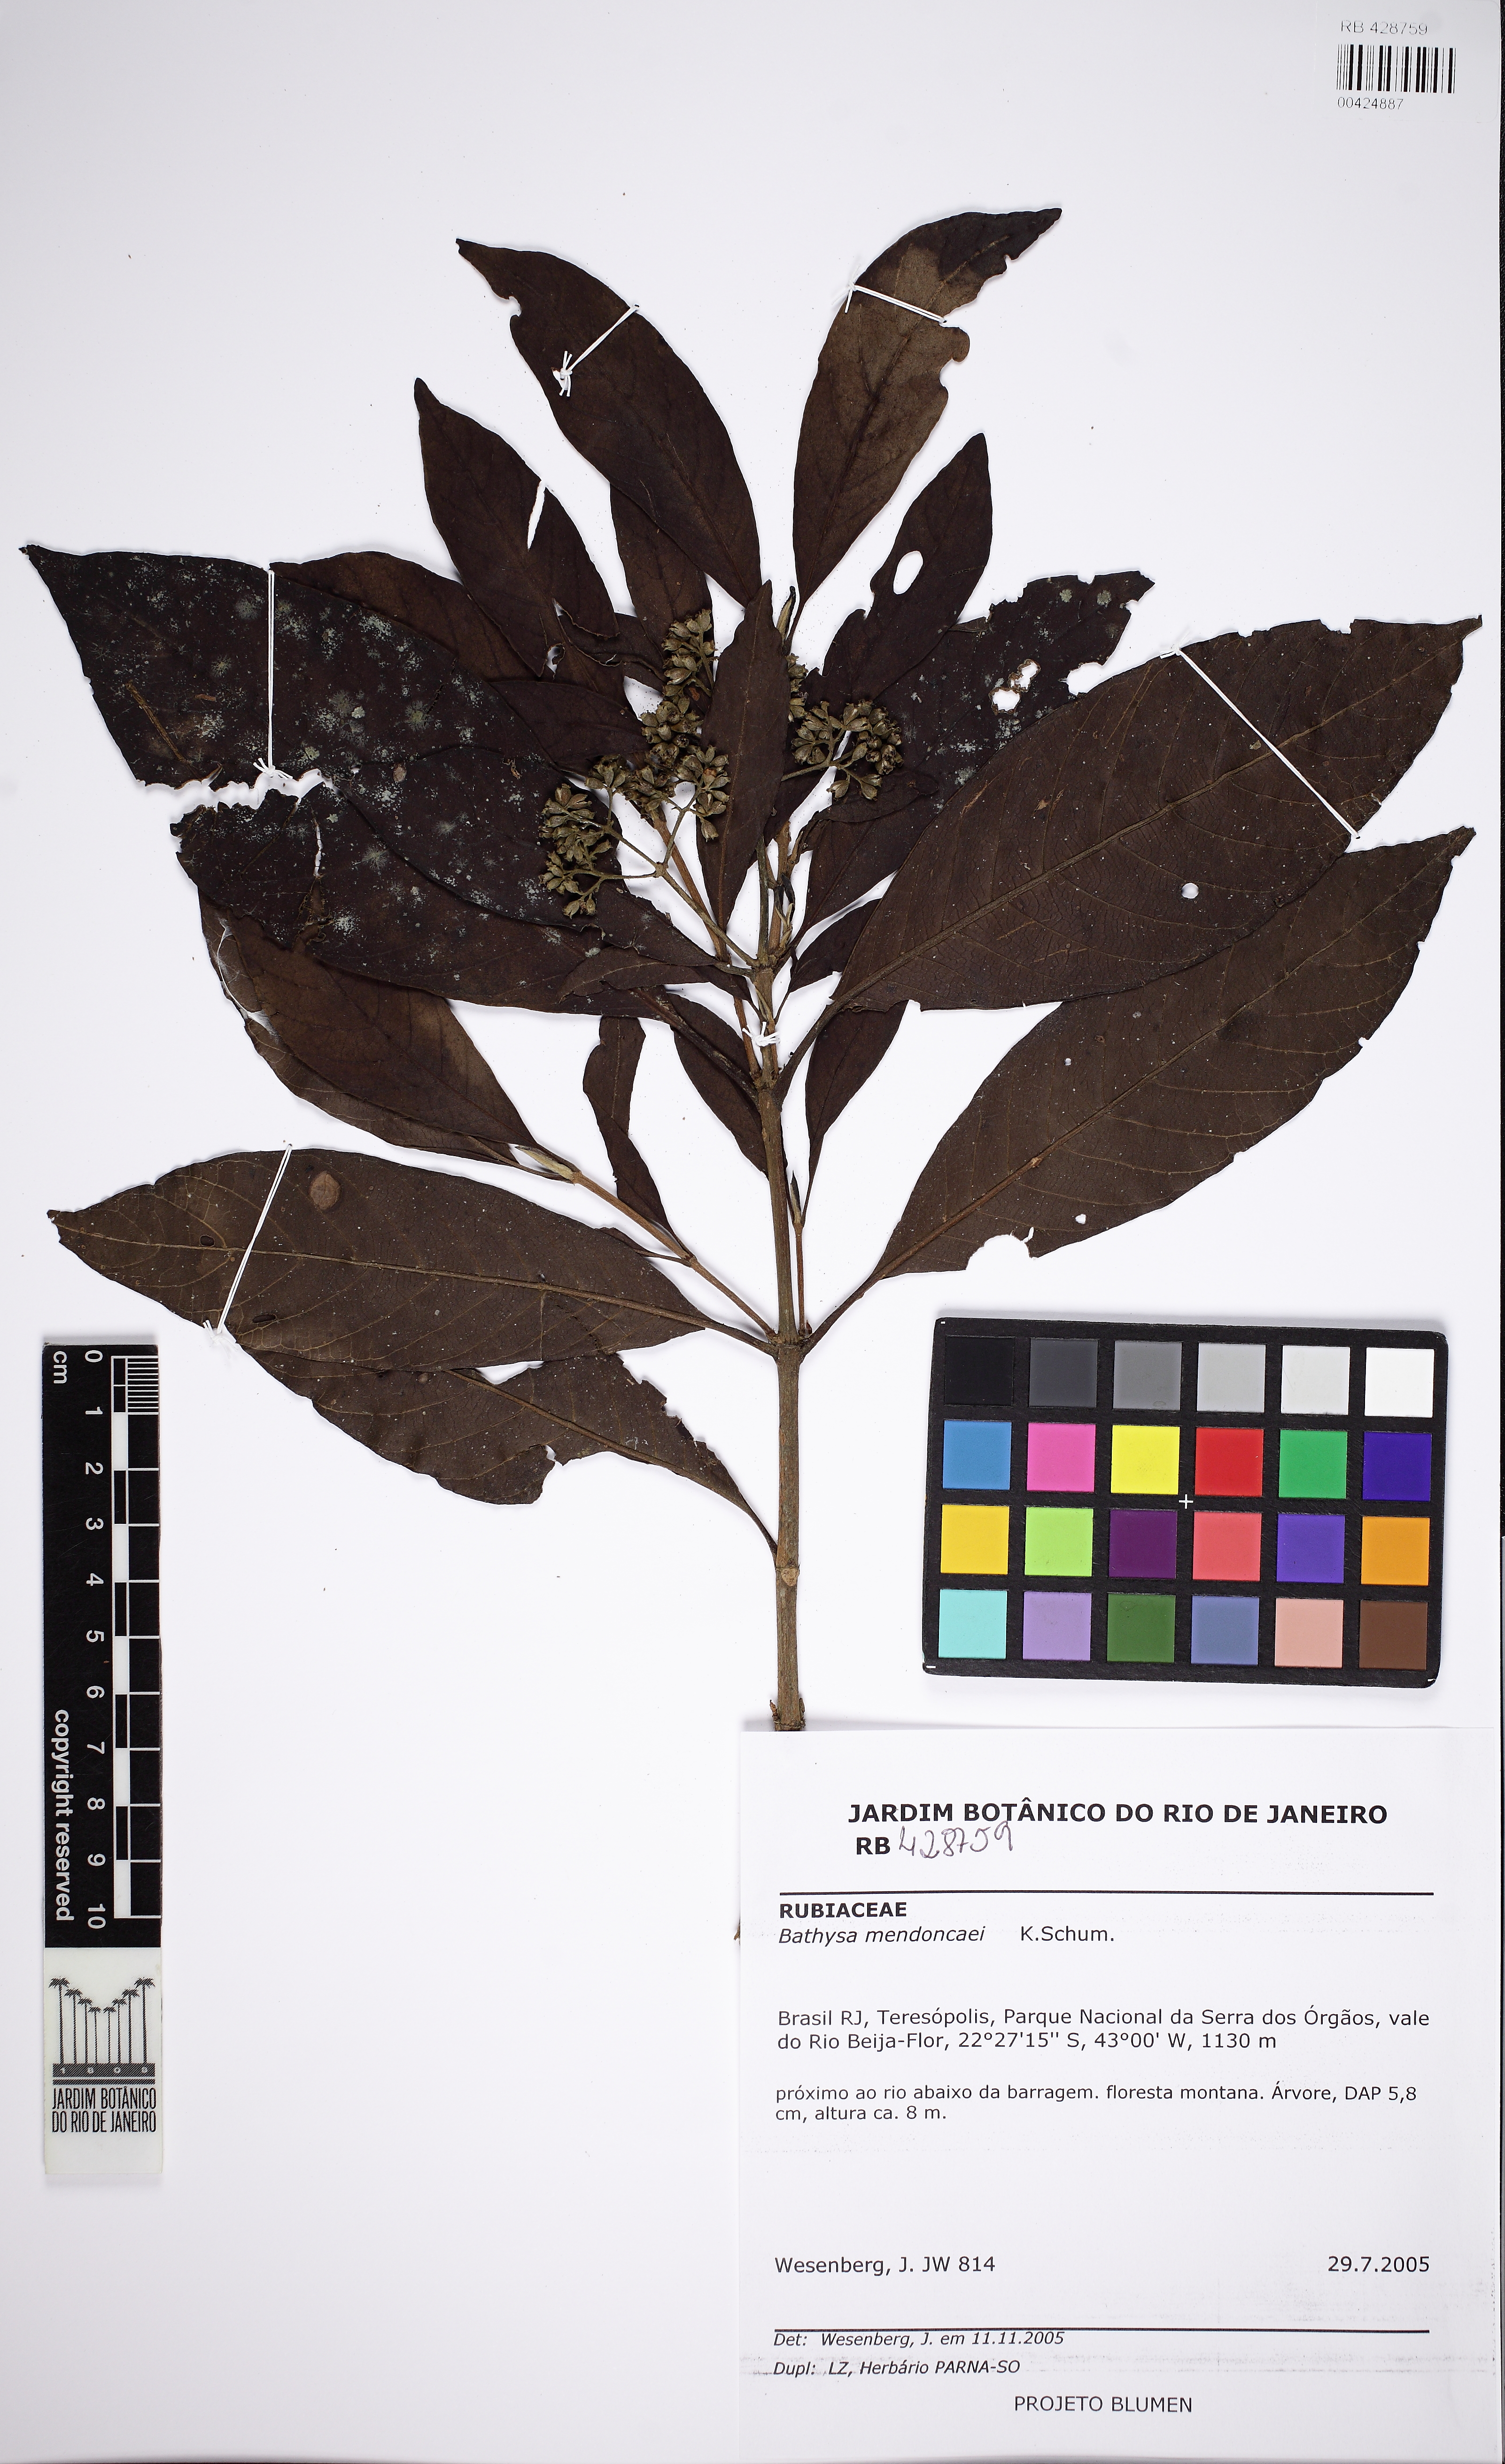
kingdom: Plantae
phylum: Tracheophyta
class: Magnoliopsida
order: Gentianales
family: Rubiaceae
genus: Bathysa
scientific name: Bathysa mendoncaei
